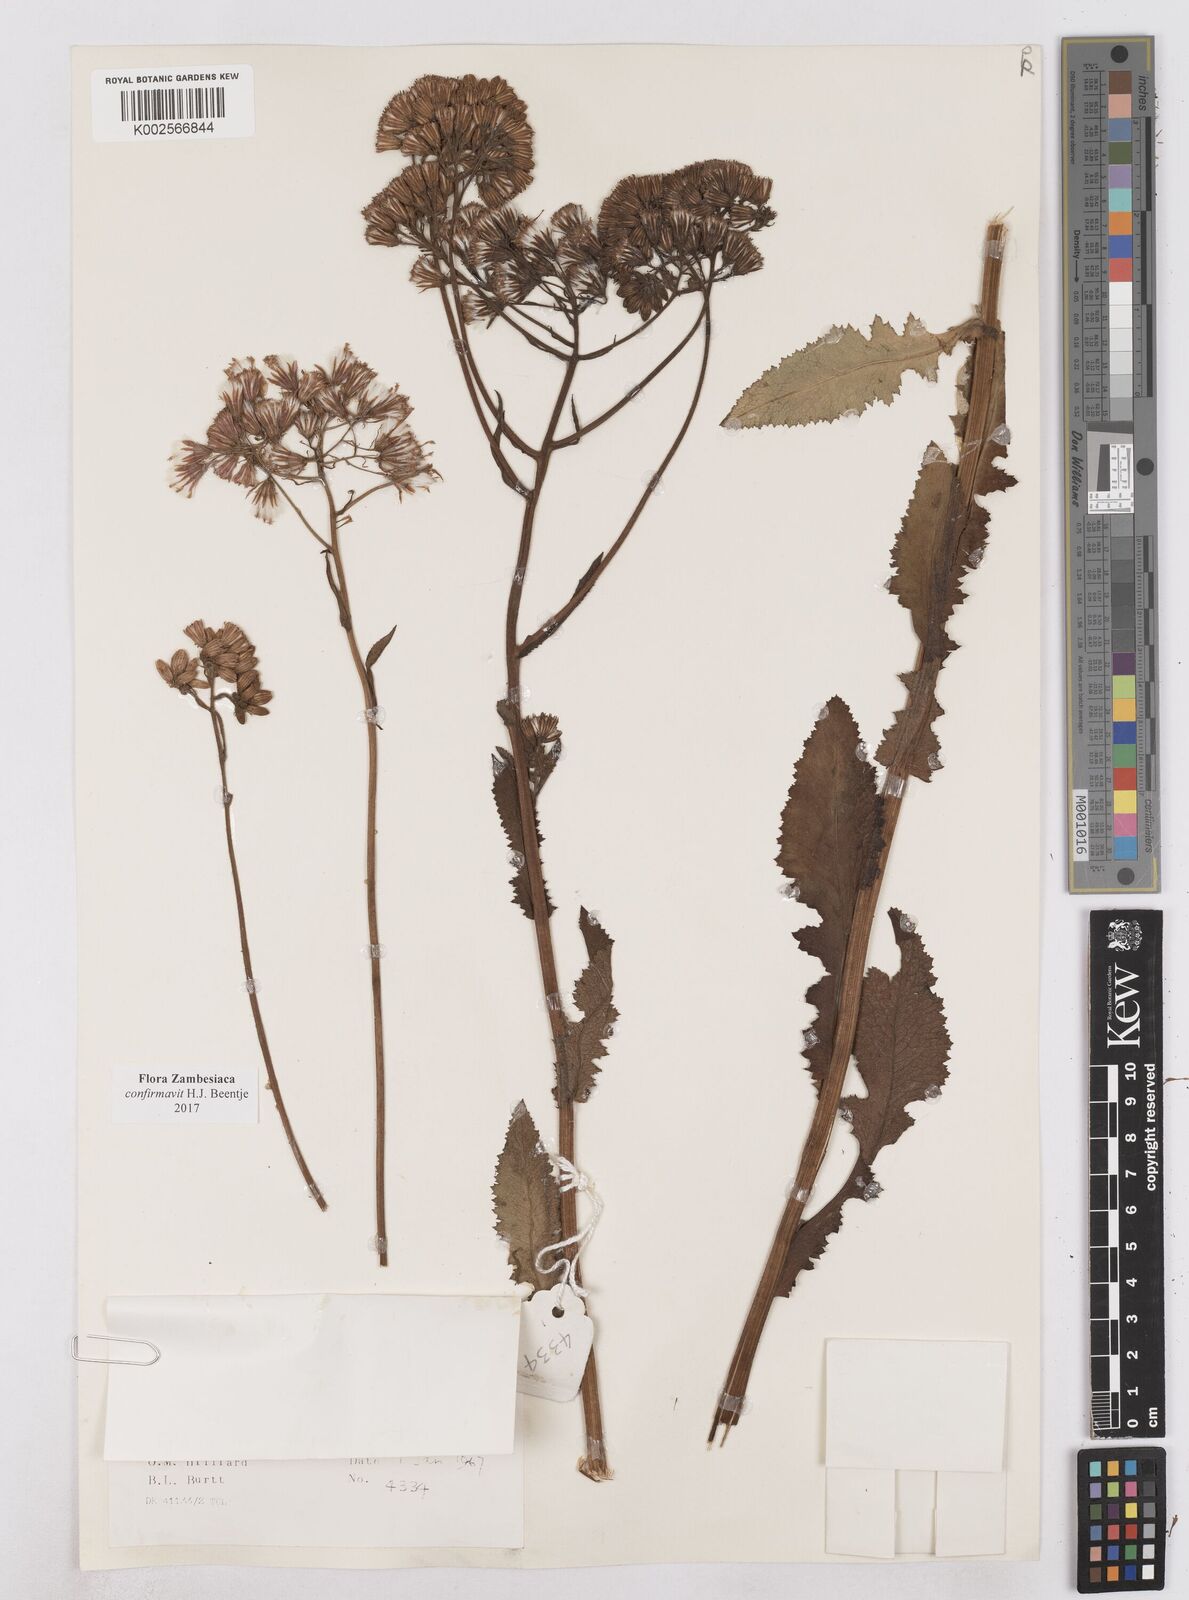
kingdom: Plantae
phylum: Tracheophyta
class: Magnoliopsida
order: Asterales
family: Asteraceae
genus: Senecio
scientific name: Senecio purpureus
